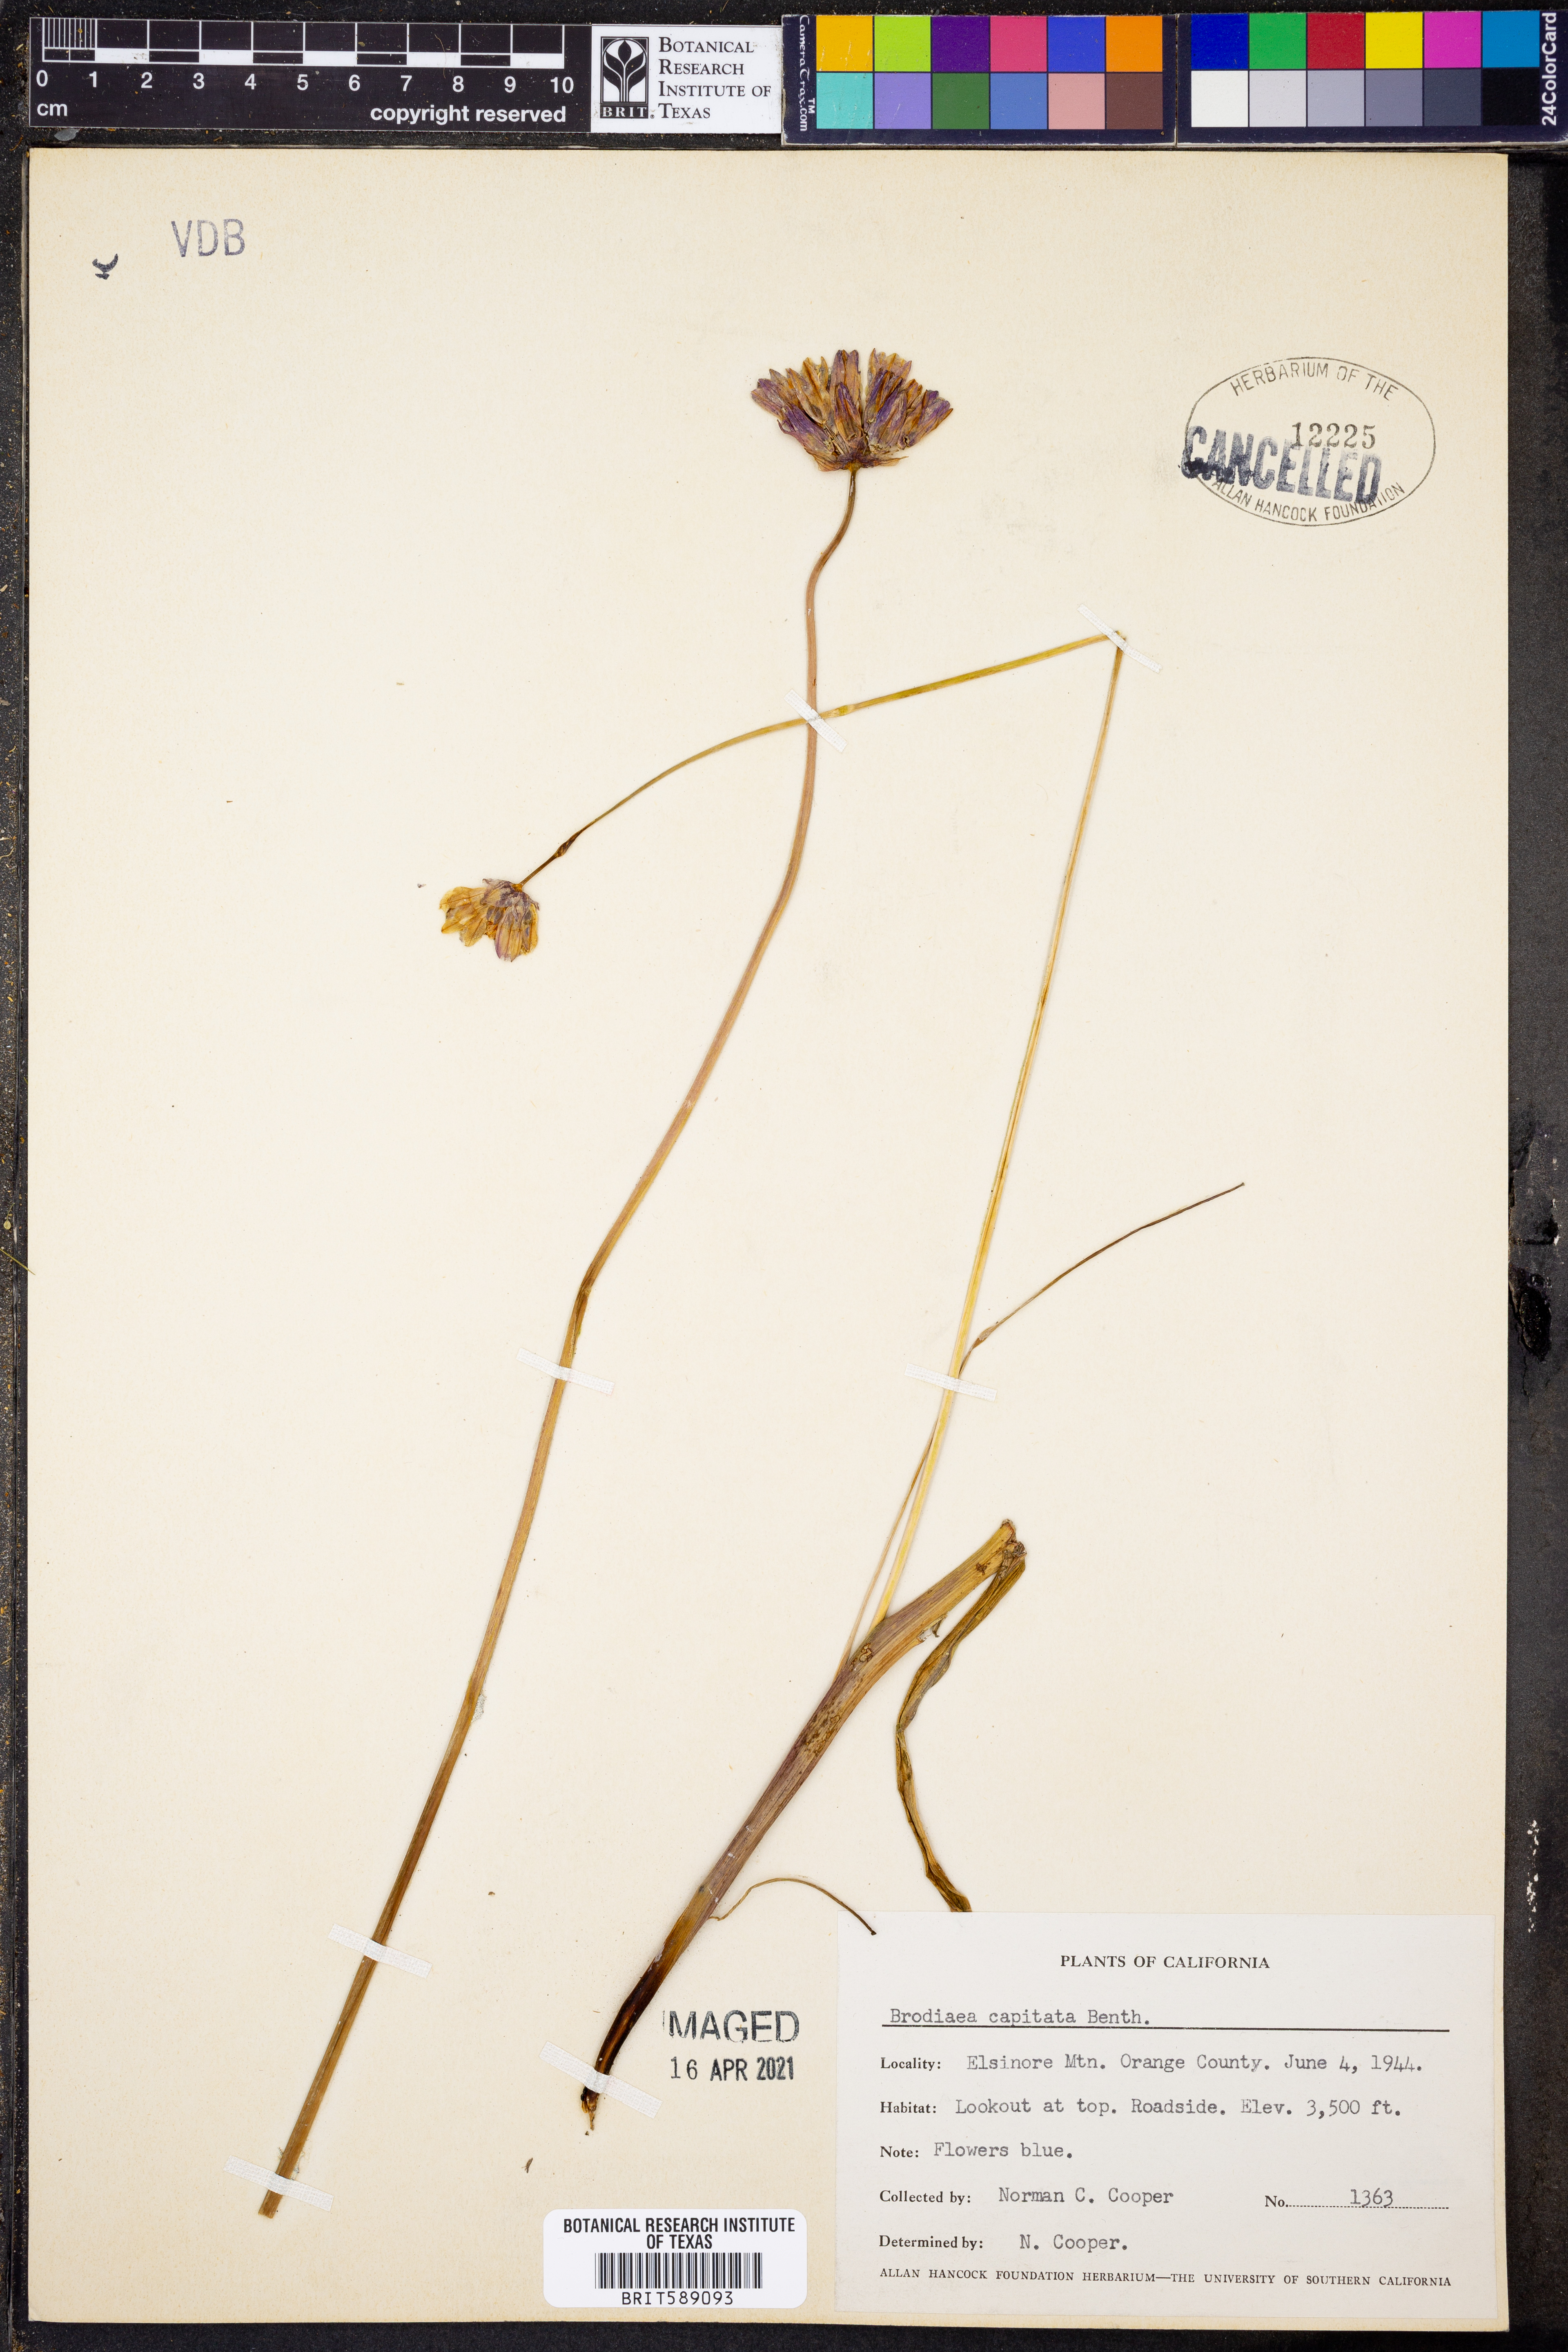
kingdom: Plantae
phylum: Tracheophyta
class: Liliopsida
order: Asparagales
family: Asparagaceae
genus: Dipterostemon
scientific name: Dipterostemon capitatus
